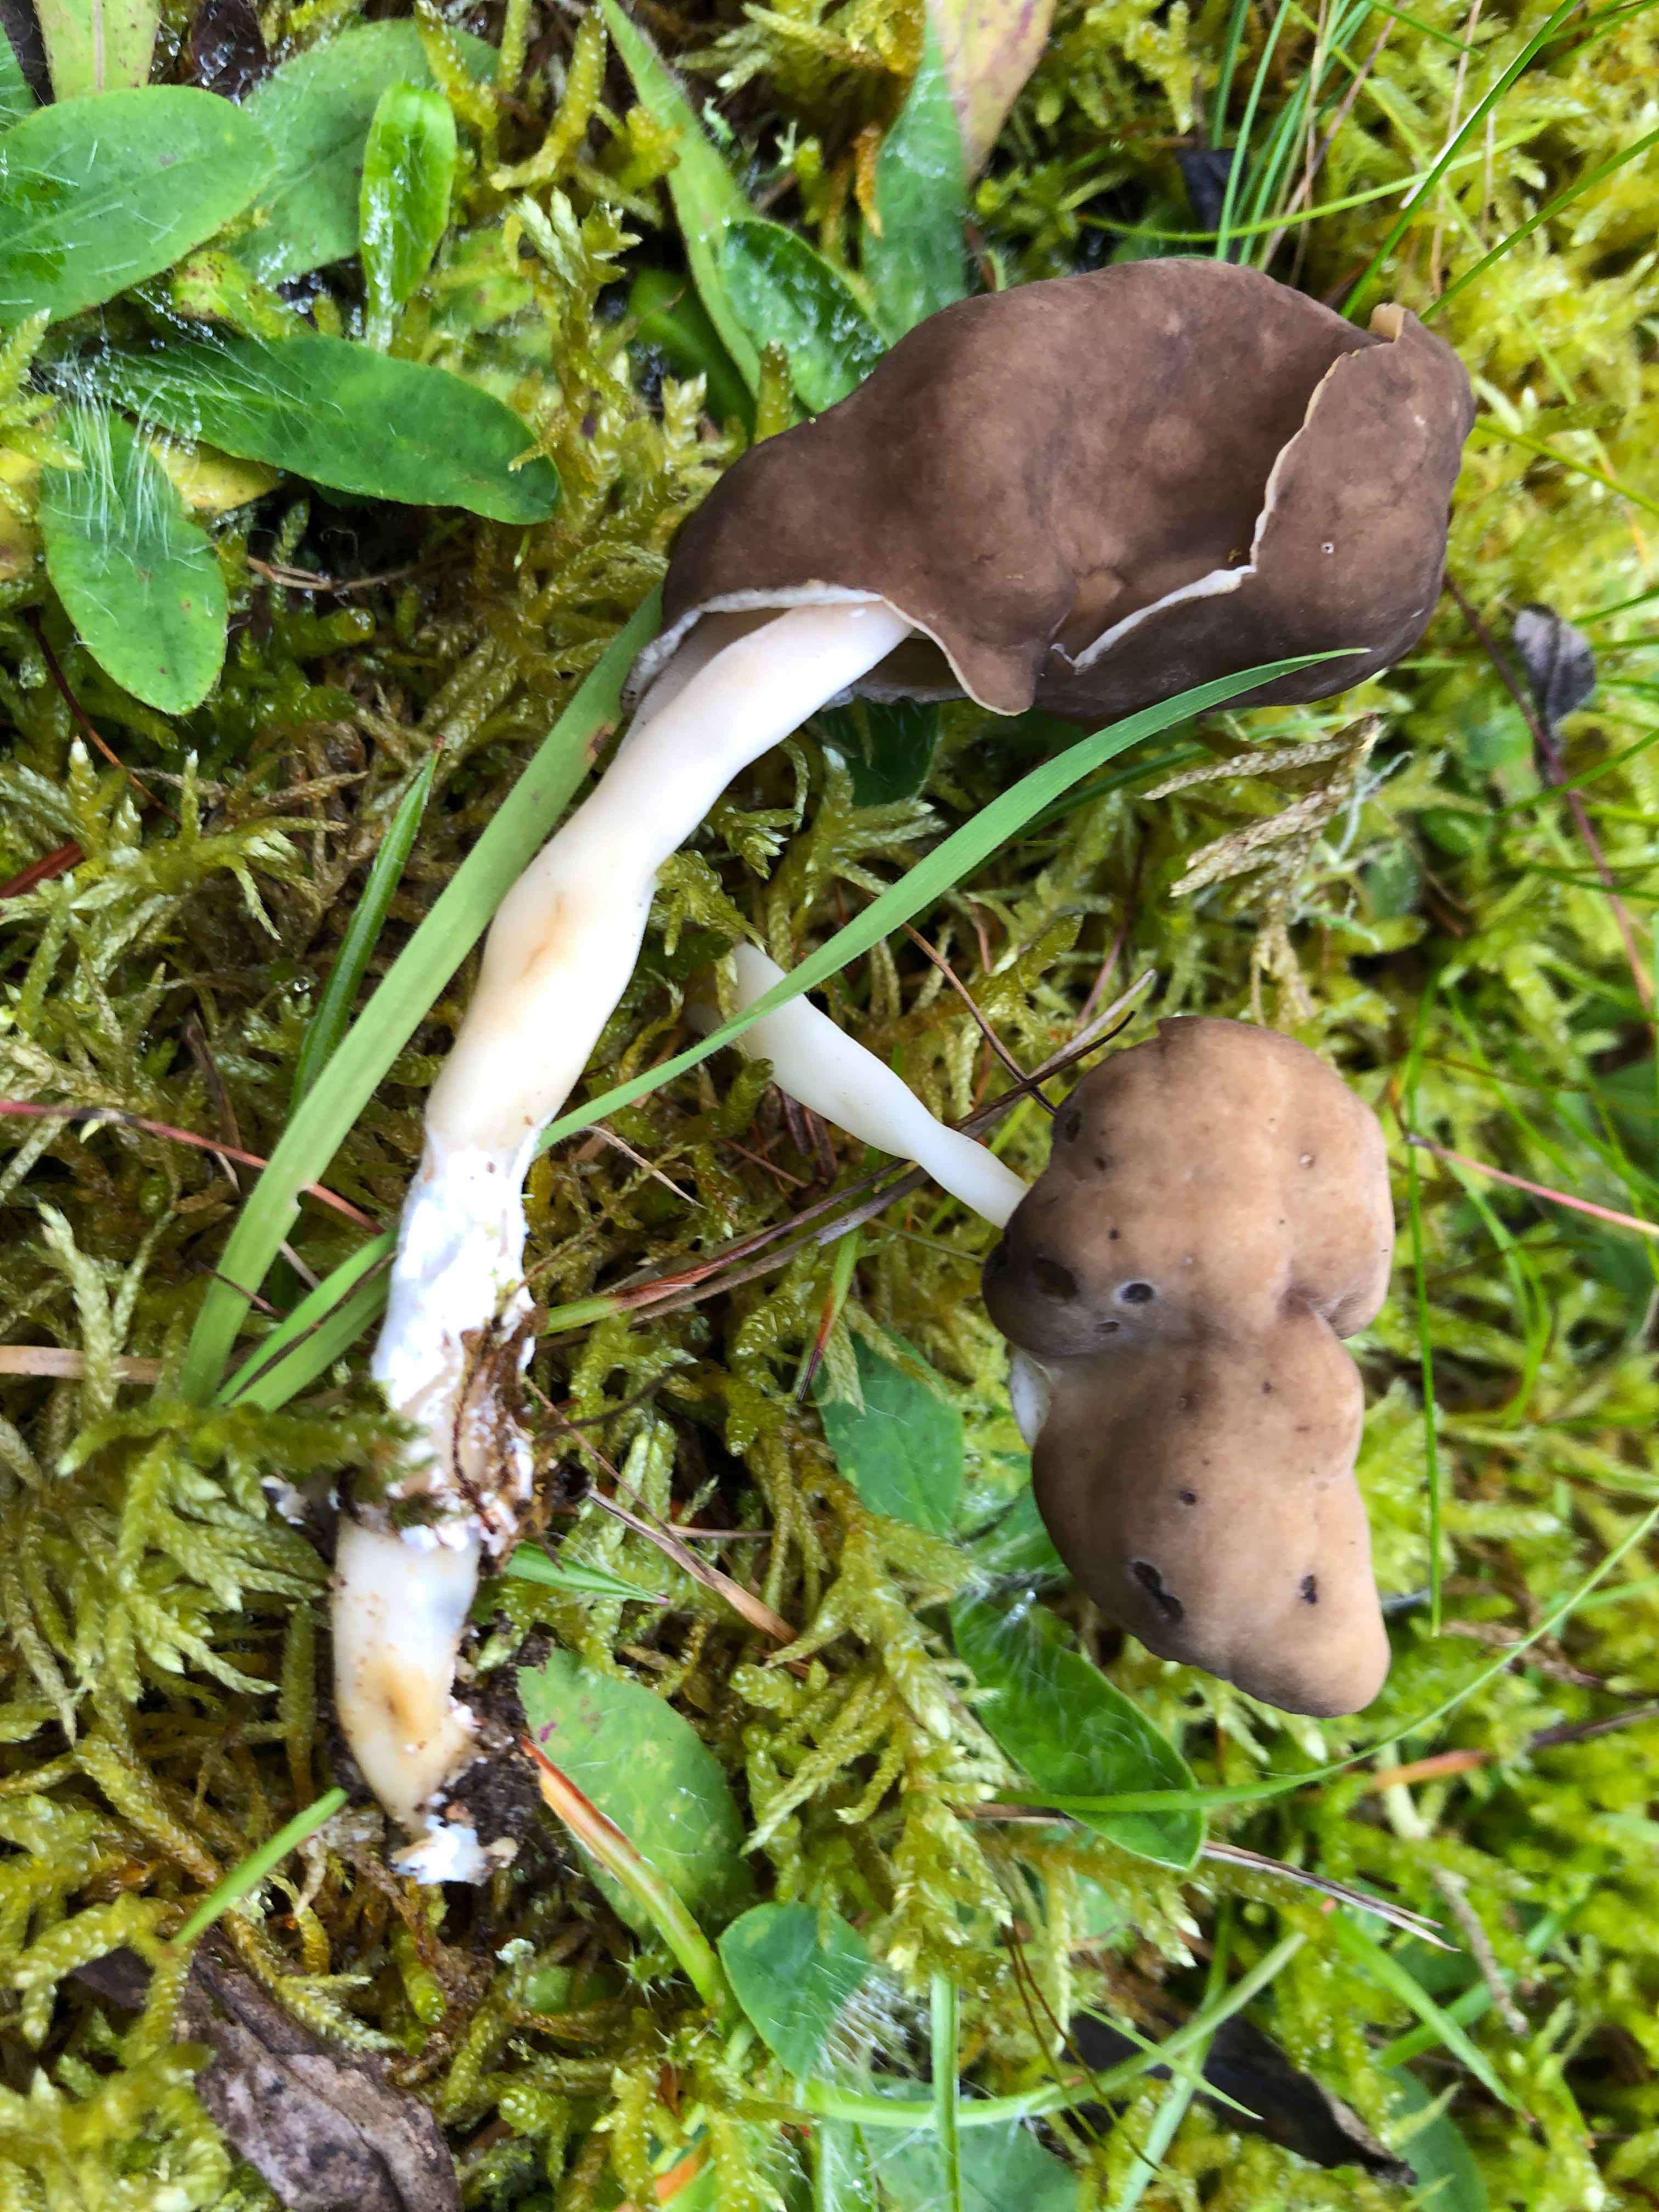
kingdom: Fungi
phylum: Ascomycota
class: Pezizomycetes
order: Pezizales
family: Helvellaceae
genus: Helvella
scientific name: Helvella elastica
